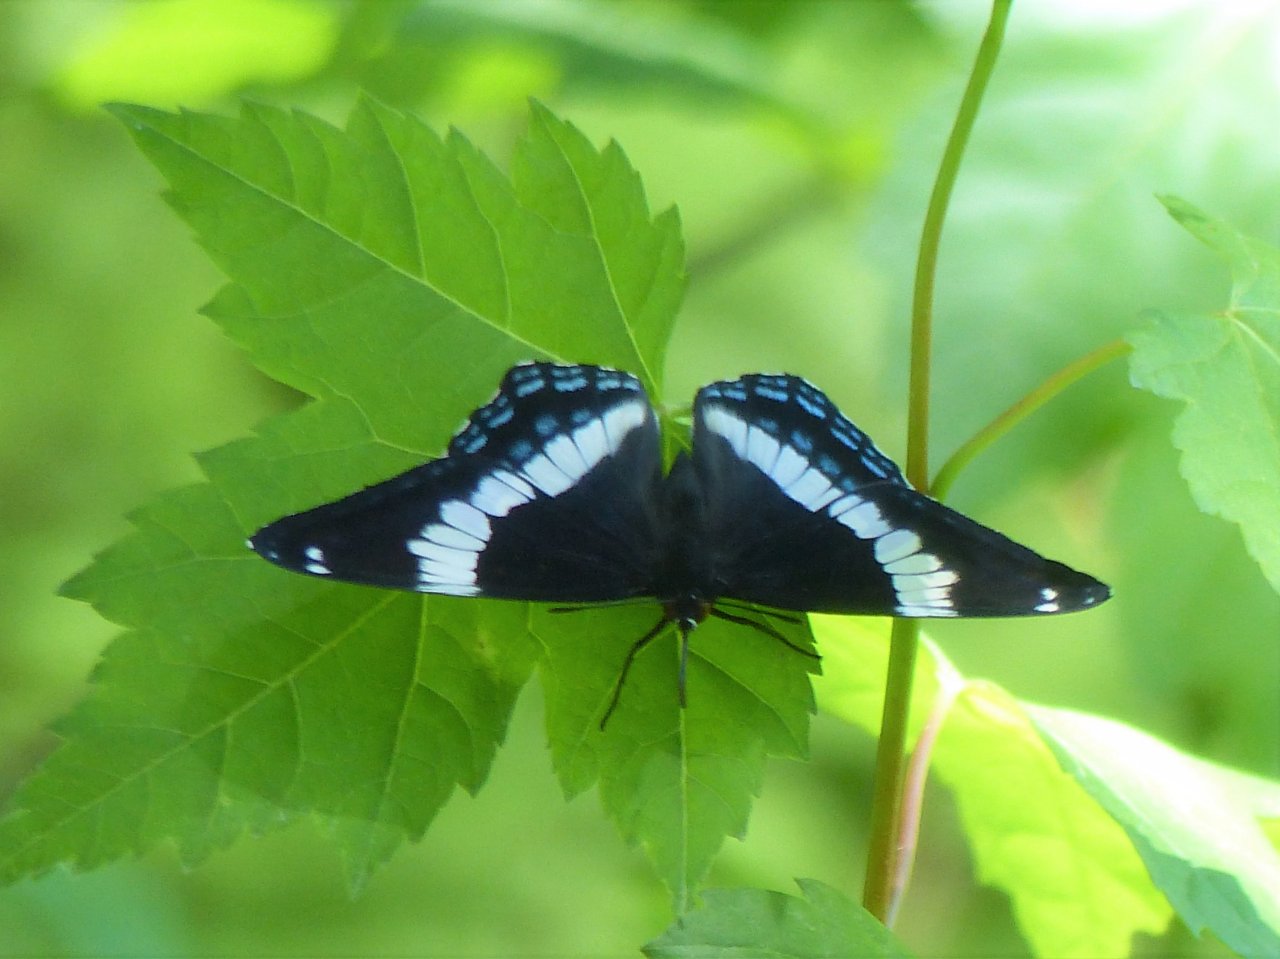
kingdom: Animalia
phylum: Arthropoda
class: Insecta
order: Lepidoptera
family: Nymphalidae
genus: Limenitis
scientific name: Limenitis arthemis
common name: Red-spotted Admiral
